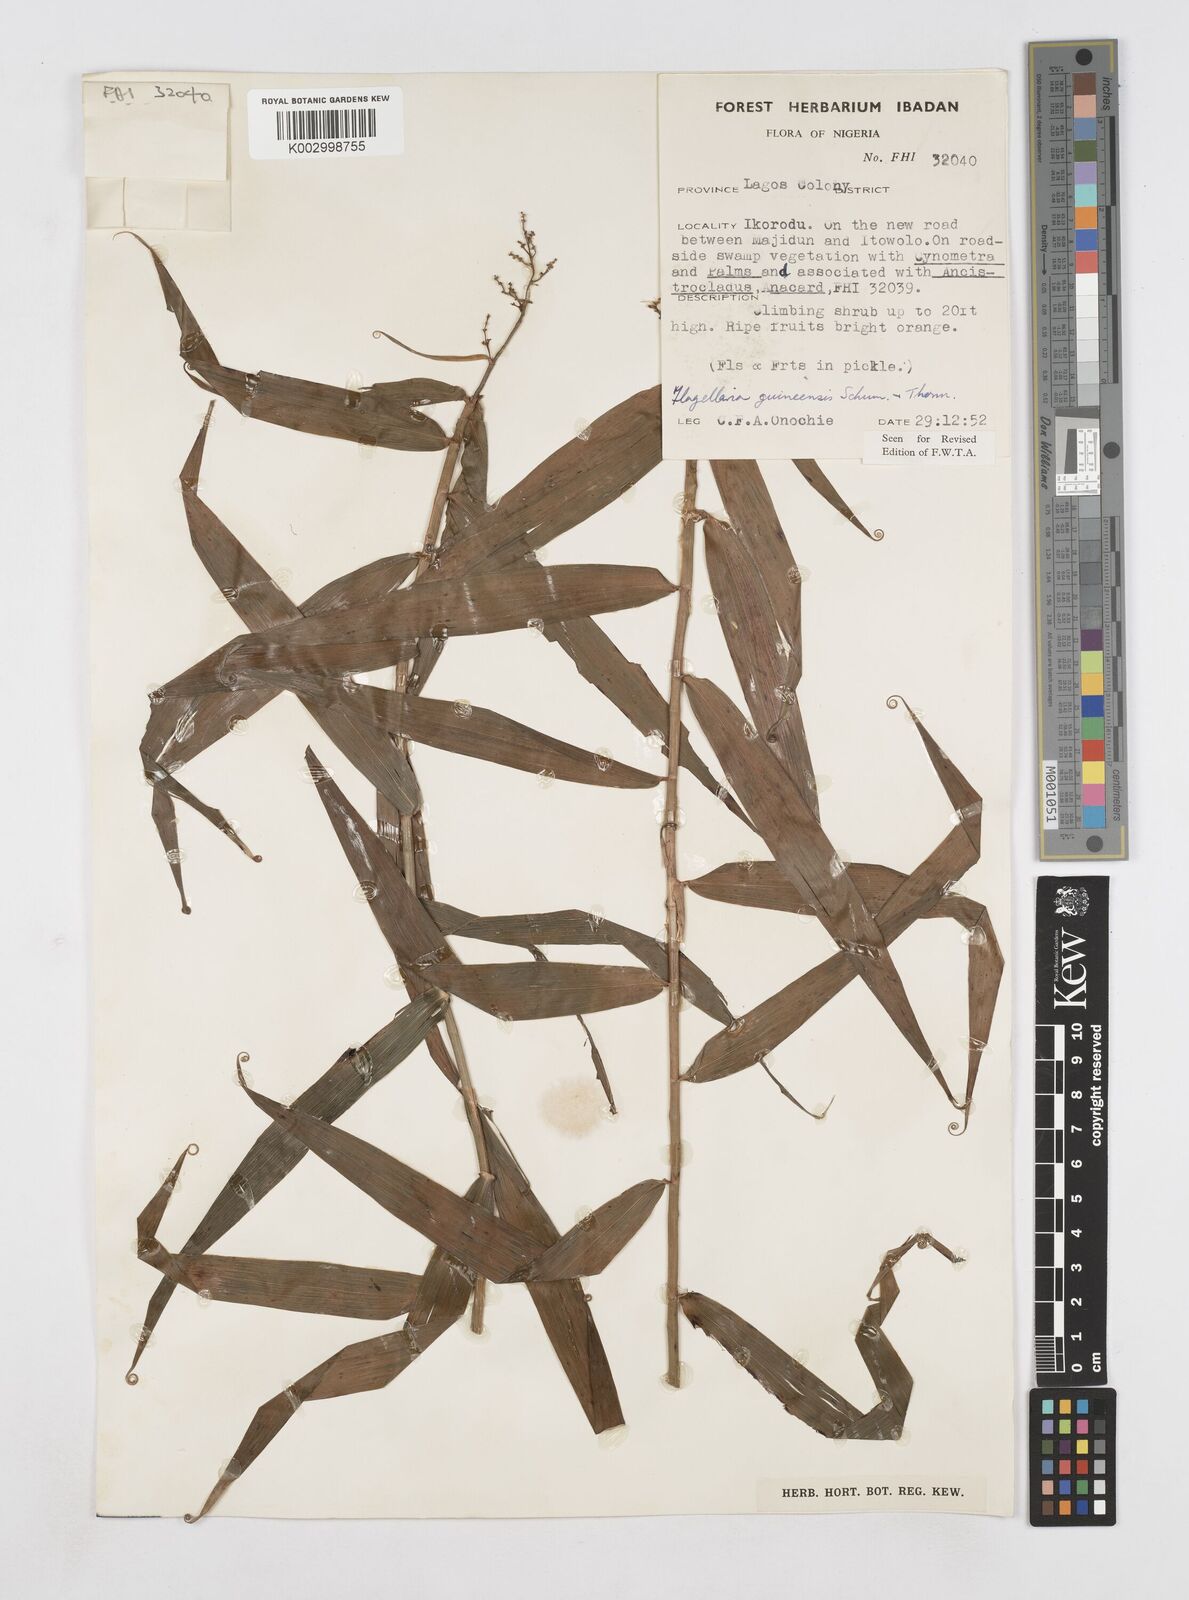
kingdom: Plantae
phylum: Tracheophyta
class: Liliopsida
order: Poales
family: Flagellariaceae
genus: Flagellaria
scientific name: Flagellaria guineensis
